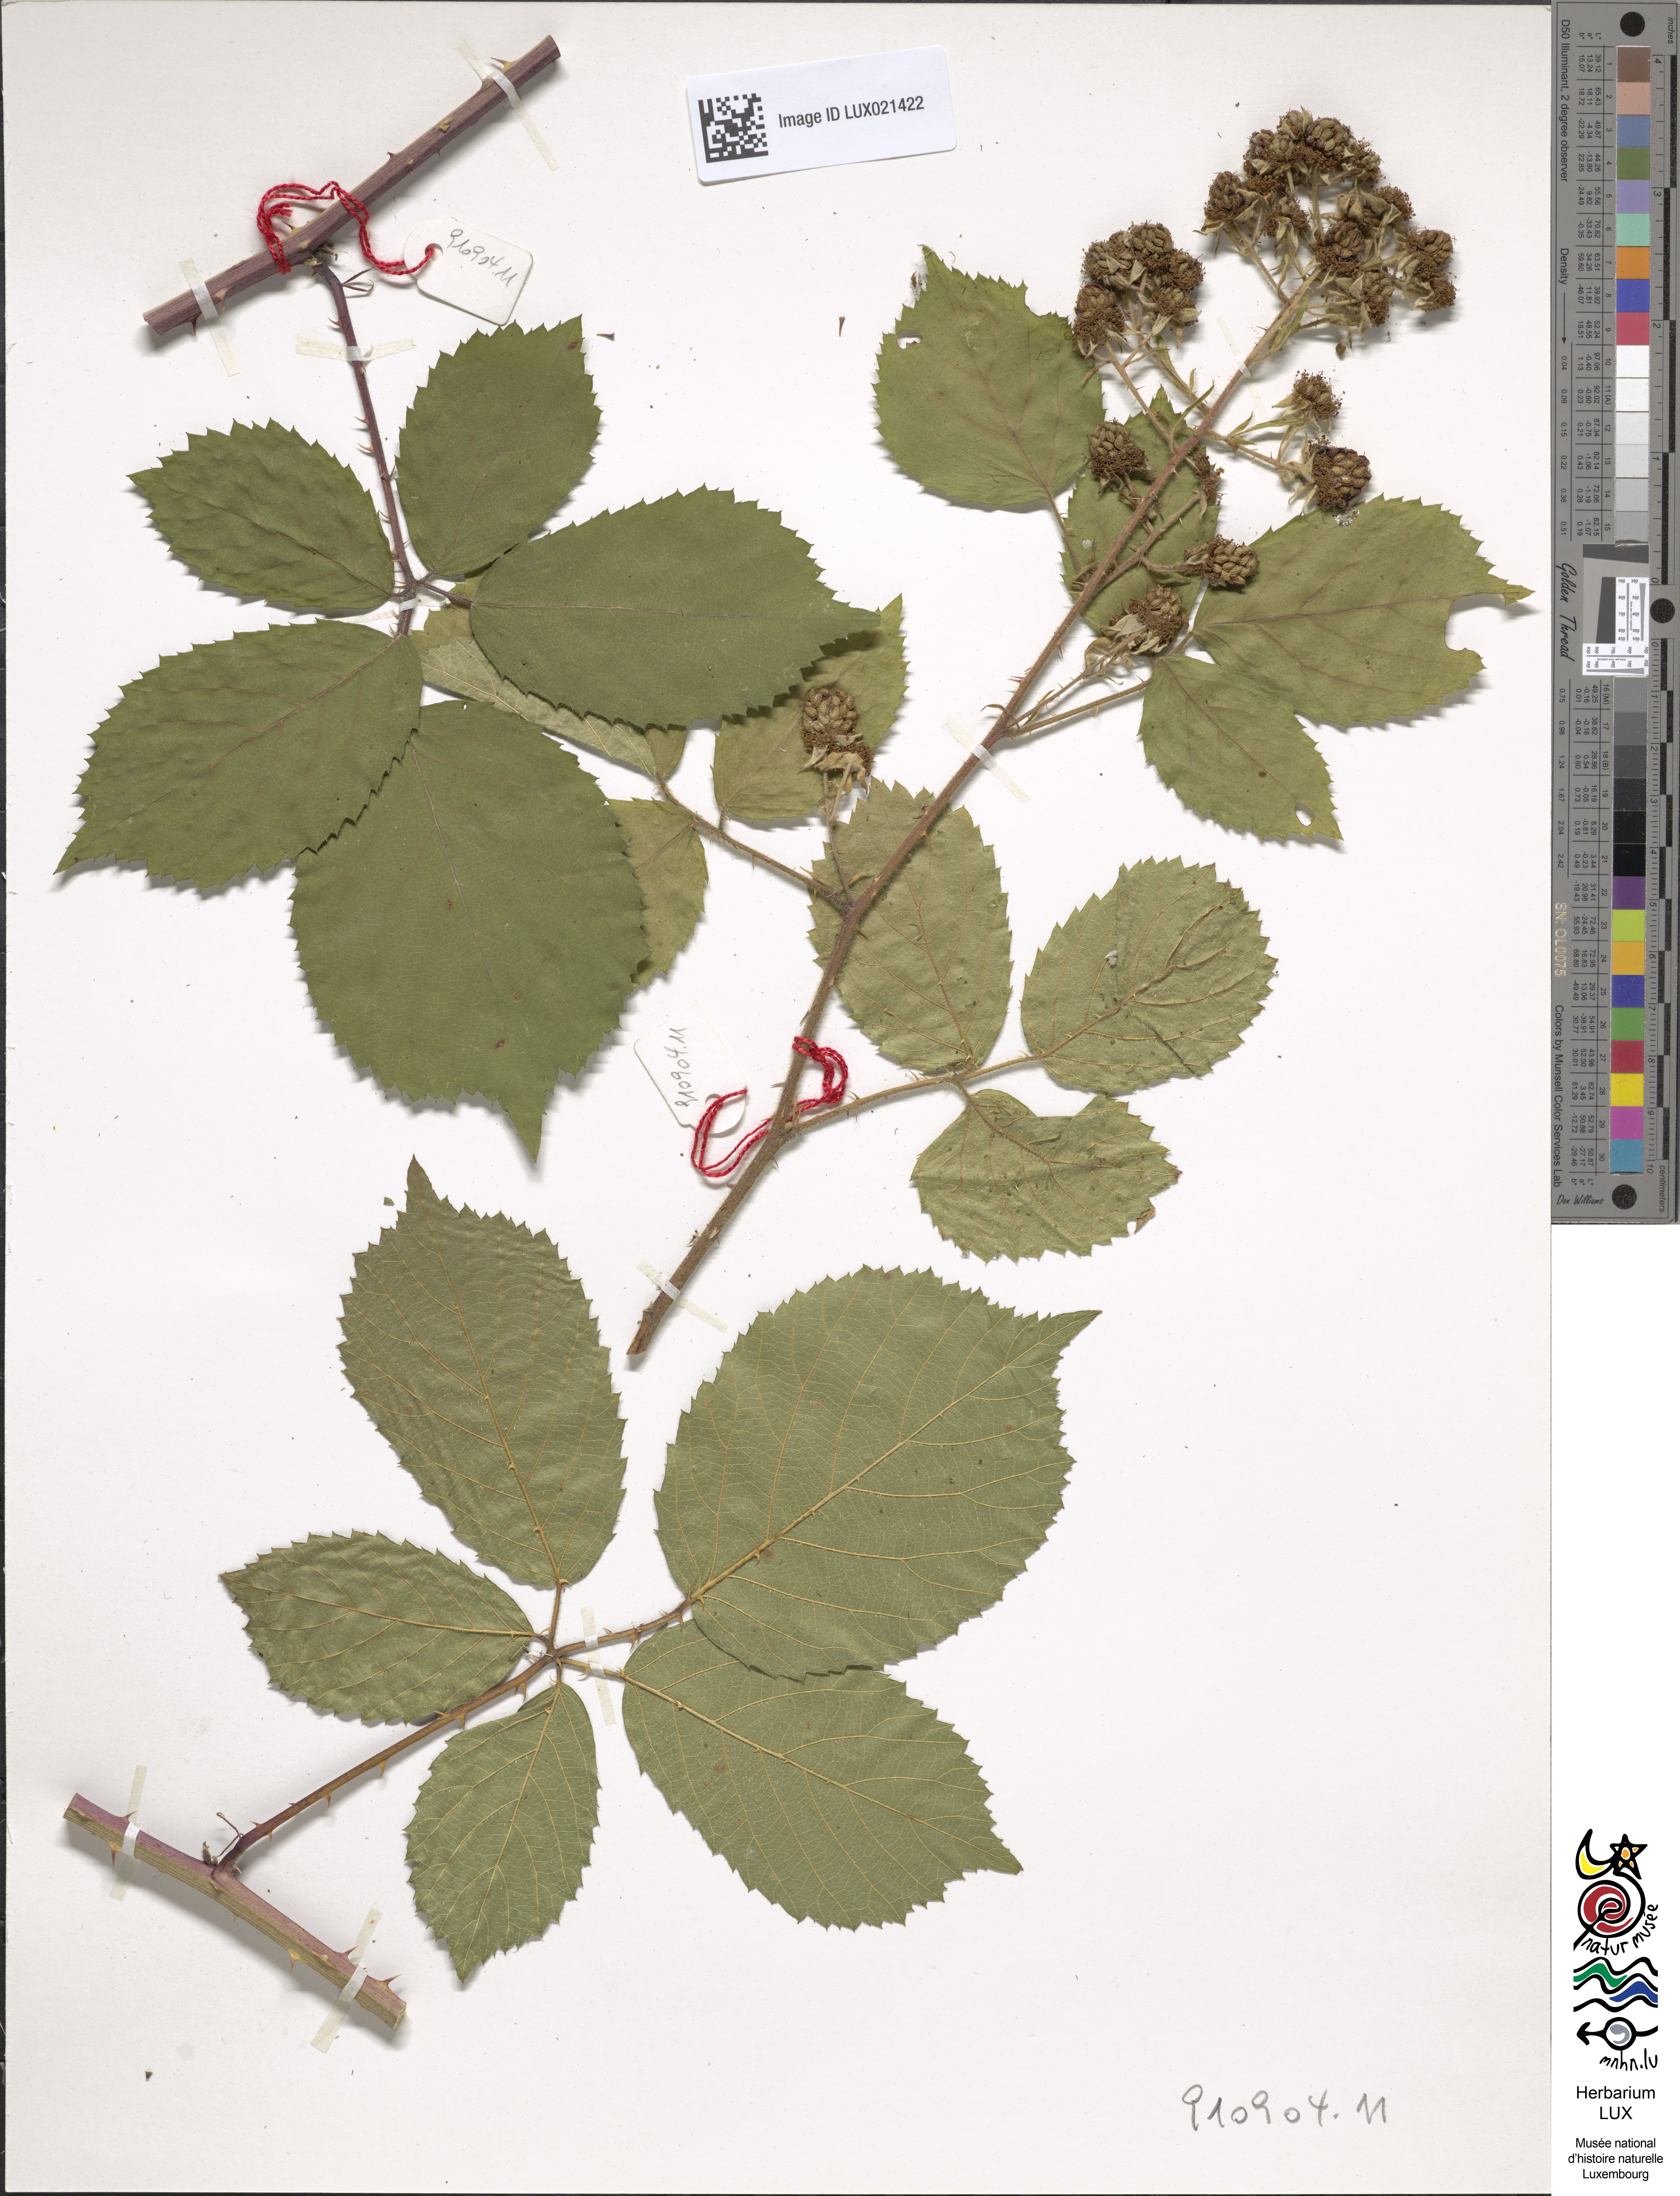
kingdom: Plantae
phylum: Tracheophyta
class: Magnoliopsida
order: Rosales
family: Rosaceae
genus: Rubus
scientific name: Rubus
